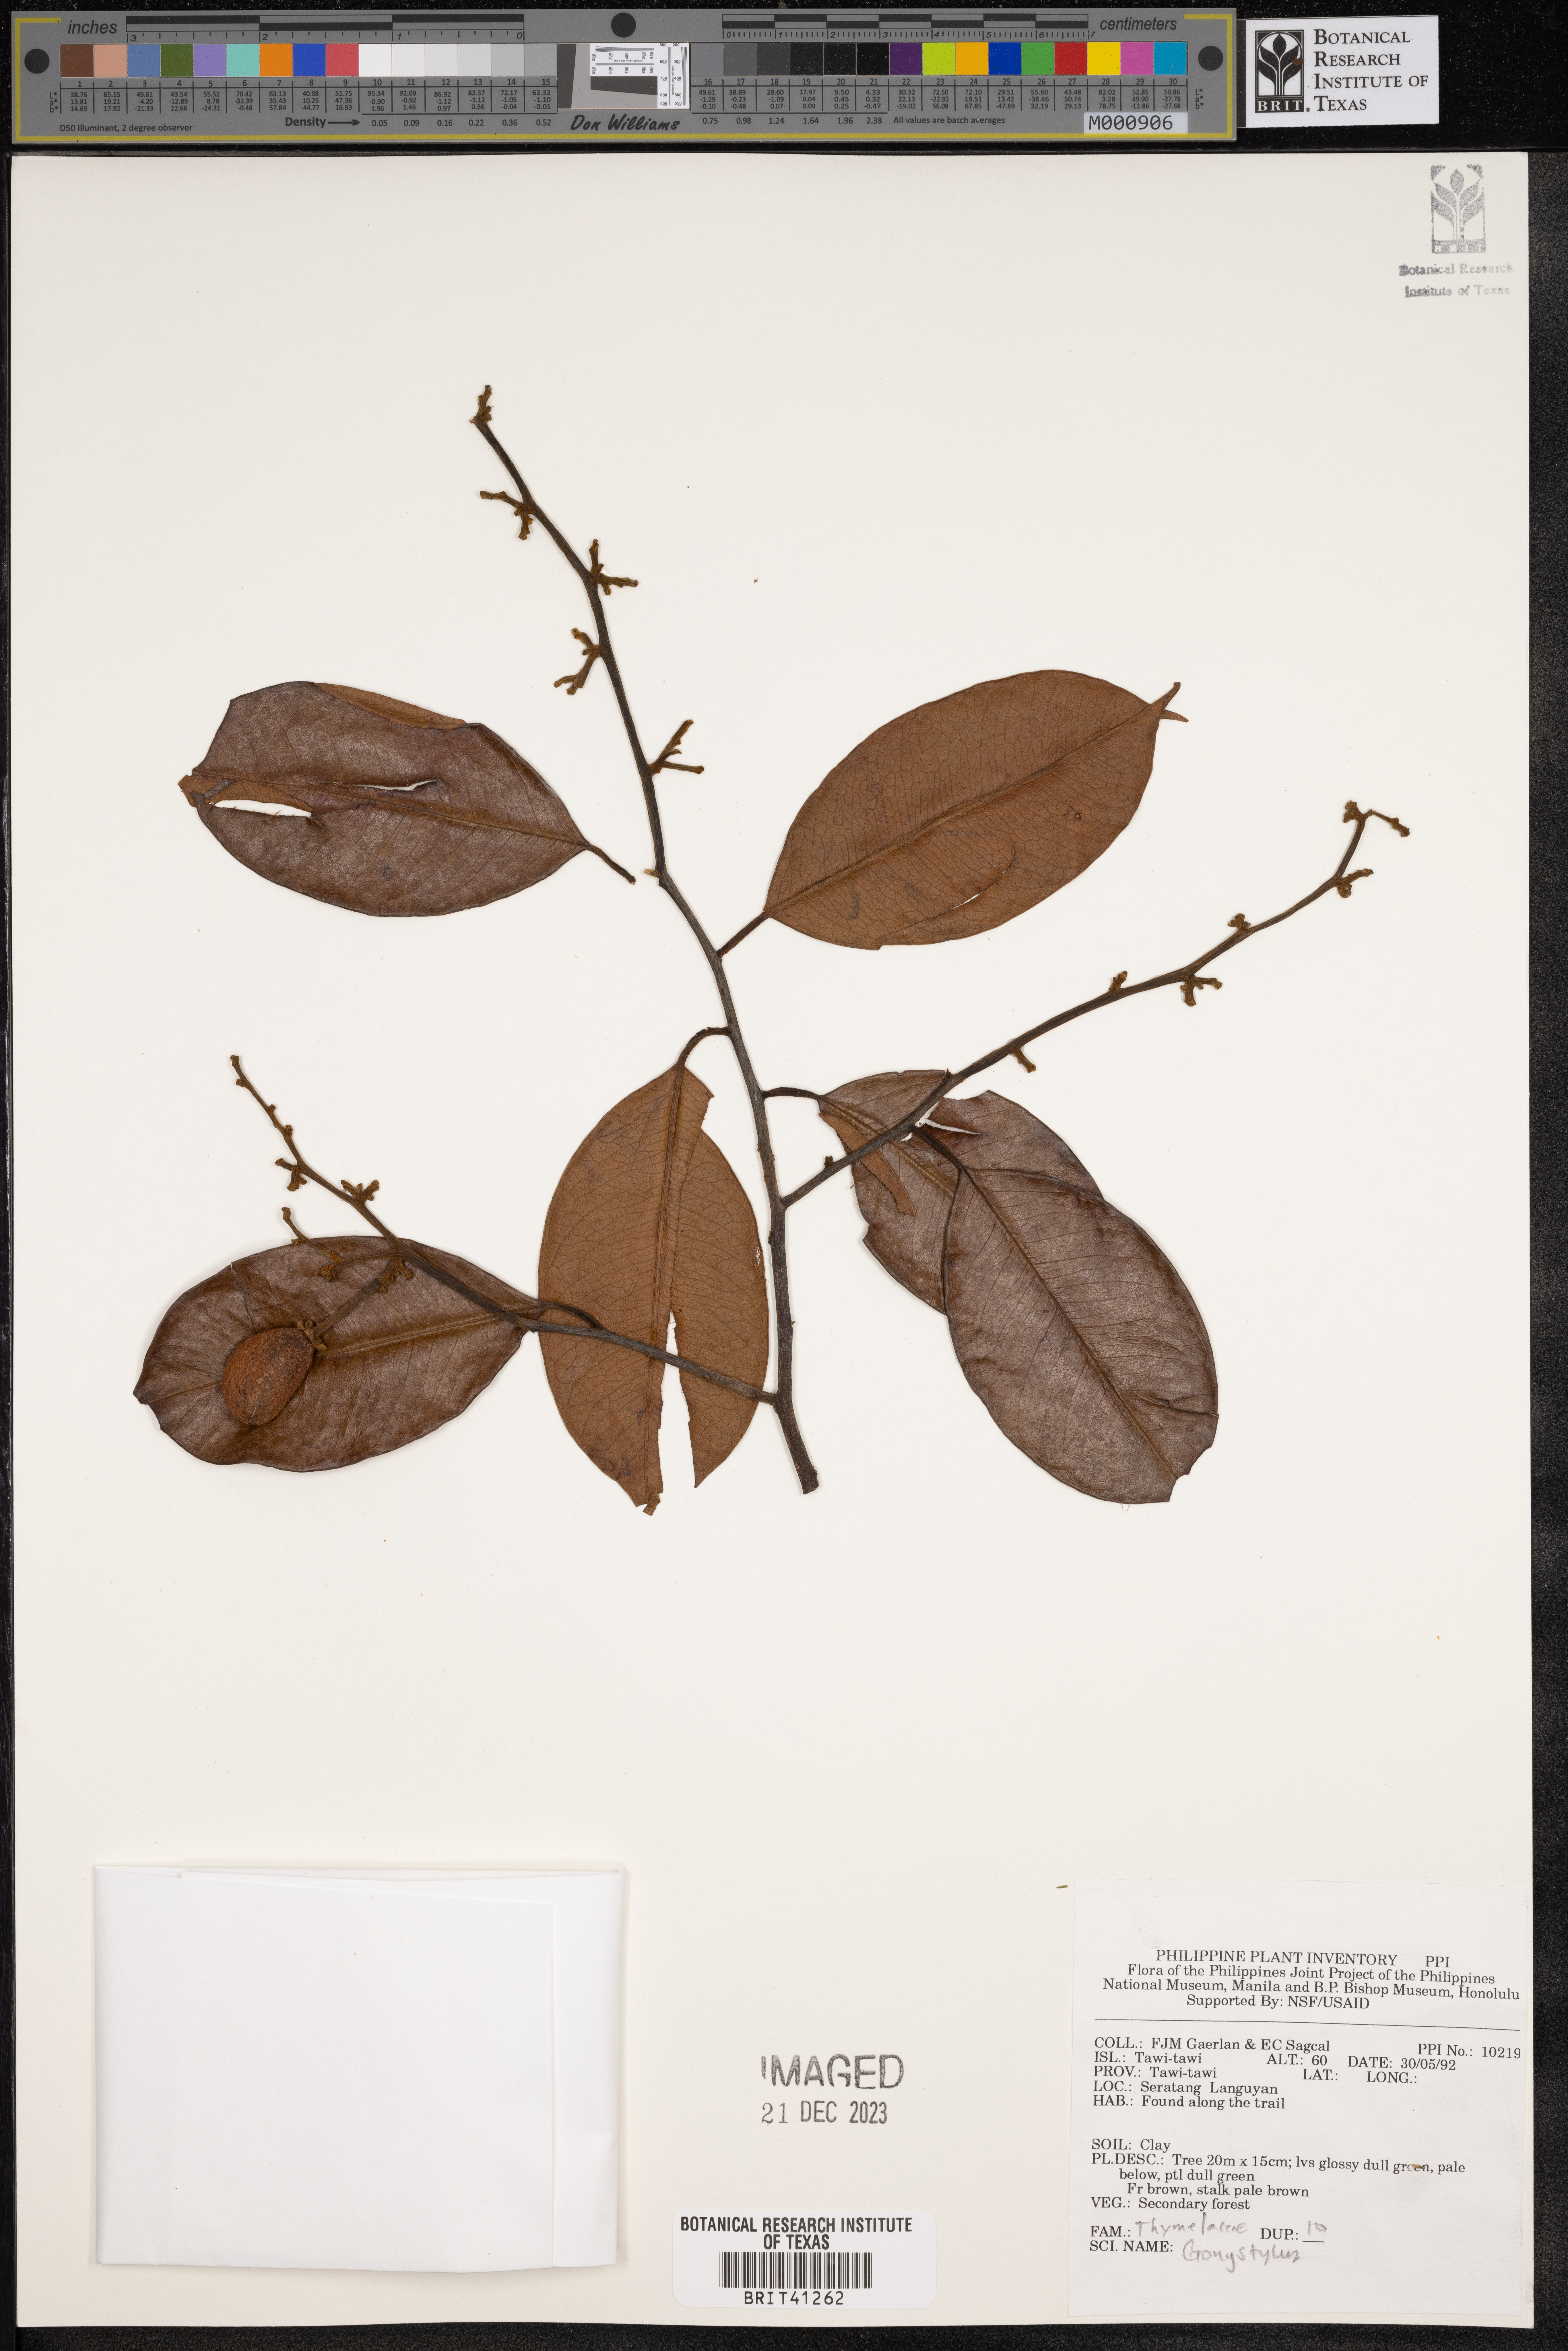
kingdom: Plantae
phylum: Tracheophyta
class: Magnoliopsida
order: Malvales
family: Thymelaeaceae
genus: Gonystylus
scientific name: Gonystylus
